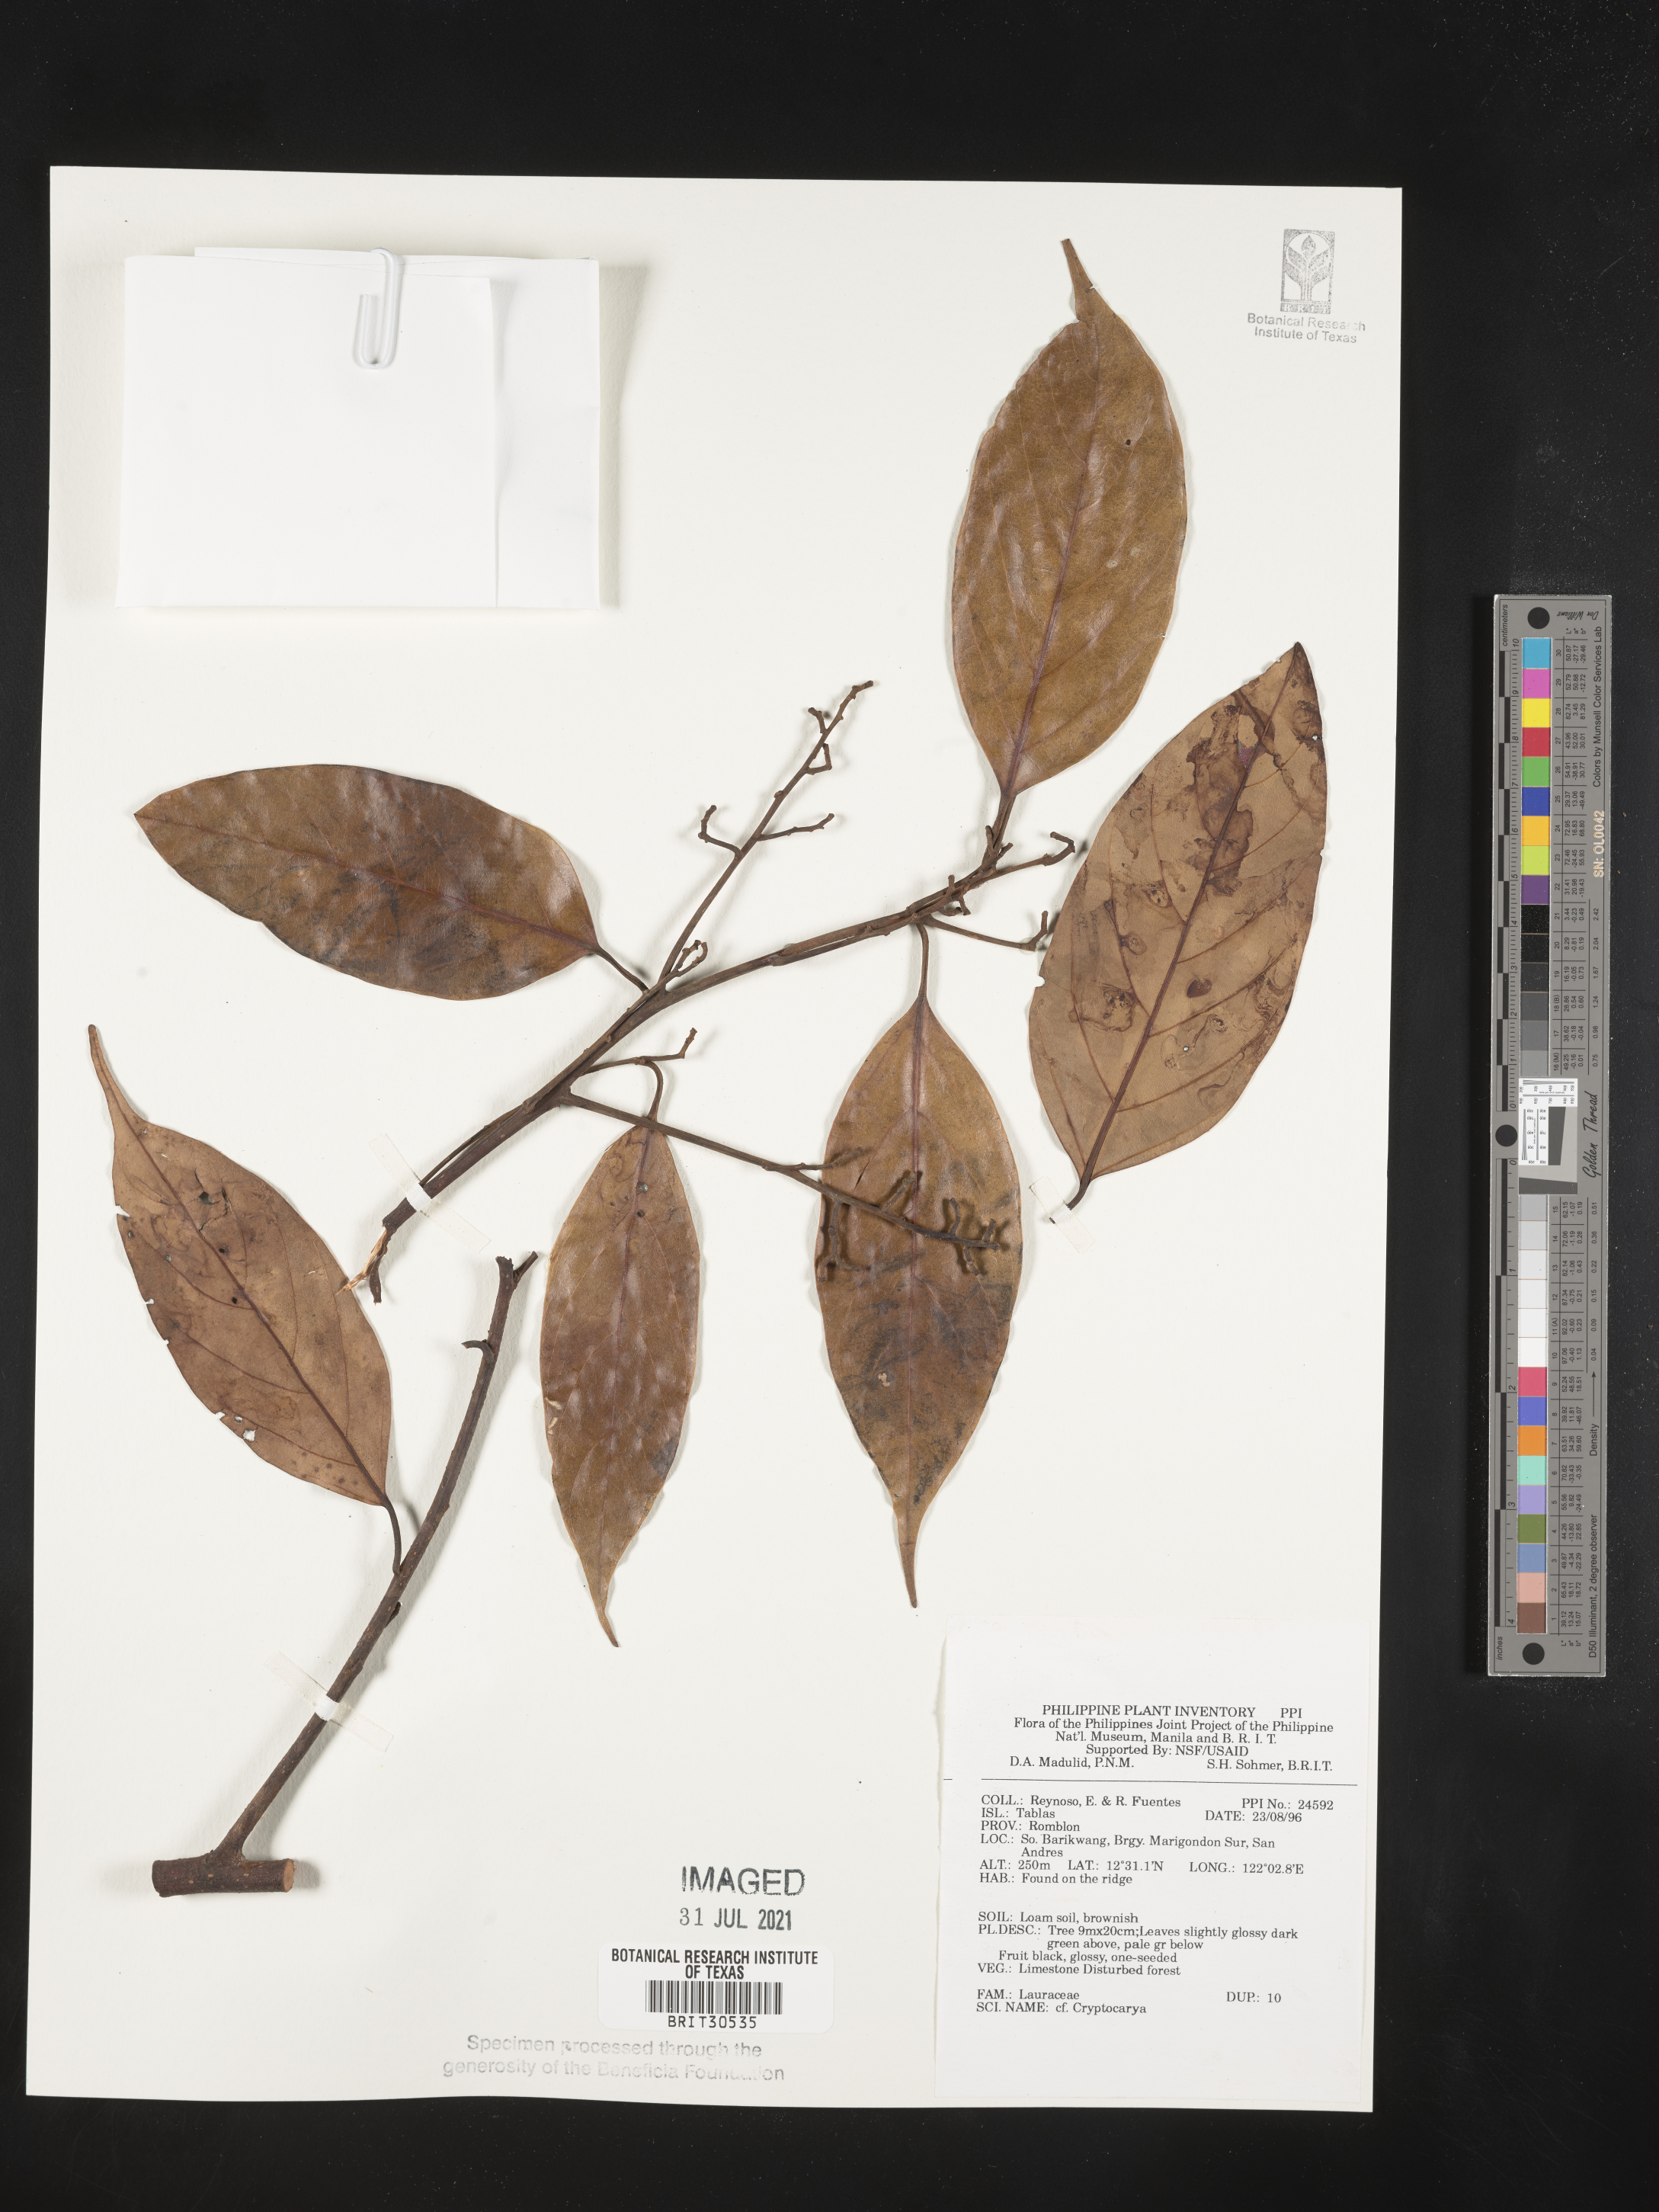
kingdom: Plantae
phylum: Tracheophyta
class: Magnoliopsida
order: Laurales
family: Lauraceae
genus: Cryptocarya
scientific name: Cryptocarya
